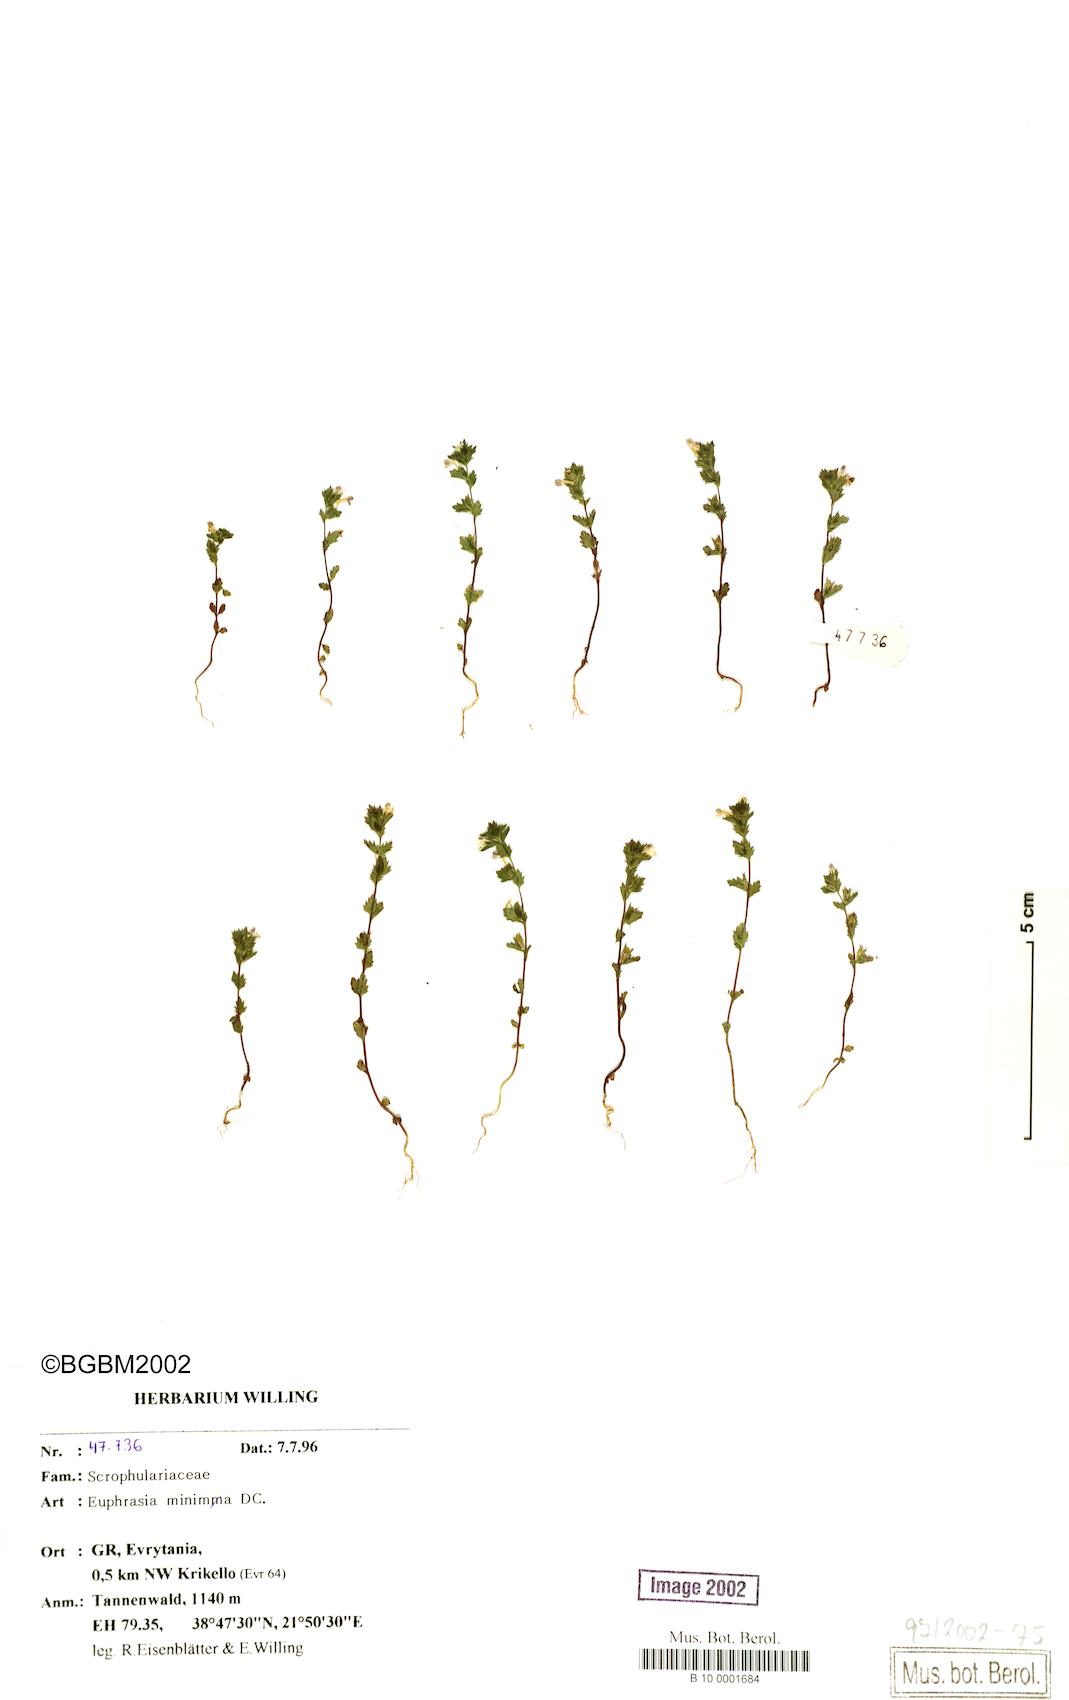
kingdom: Plantae
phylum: Tracheophyta
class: Magnoliopsida
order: Lamiales
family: Orobanchaceae
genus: Euphrasia
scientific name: Euphrasia minima
